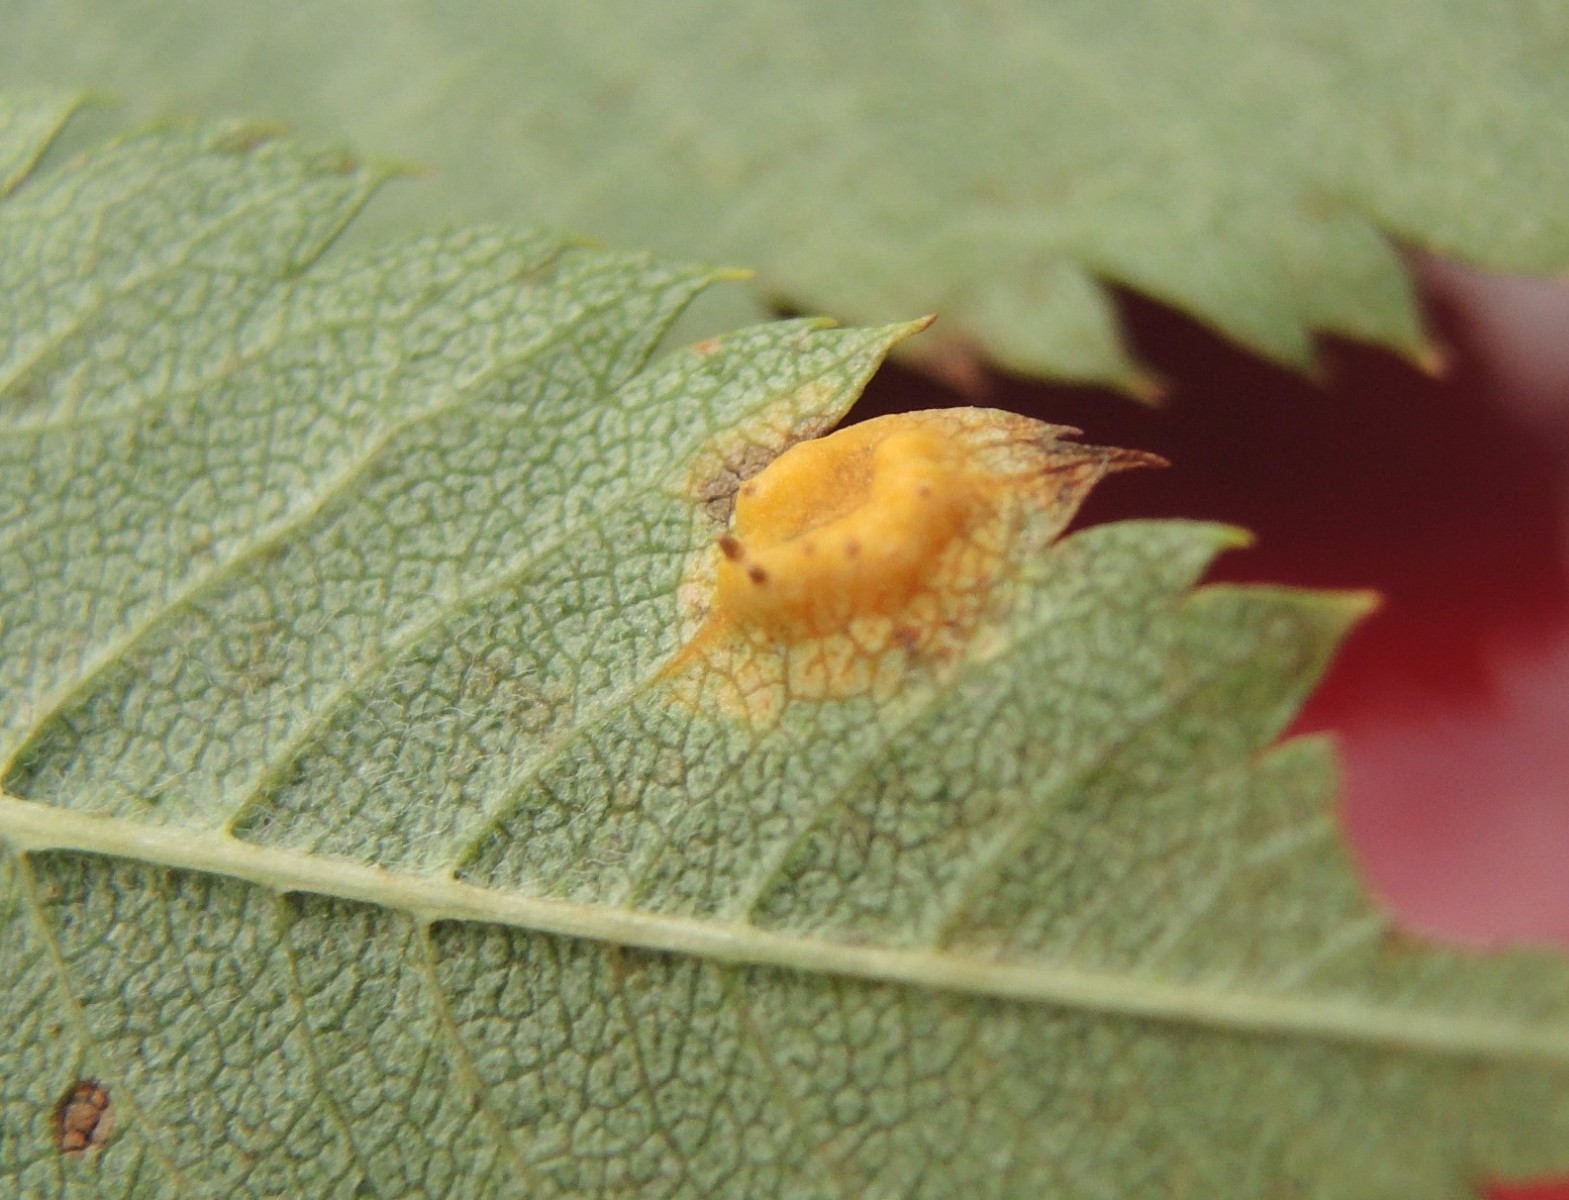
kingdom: Fungi
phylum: Basidiomycota
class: Pucciniomycetes
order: Pucciniales
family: Gymnosporangiaceae
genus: Gymnosporangium
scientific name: Gymnosporangium cornutum
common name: rønnehorn-bævrerust
